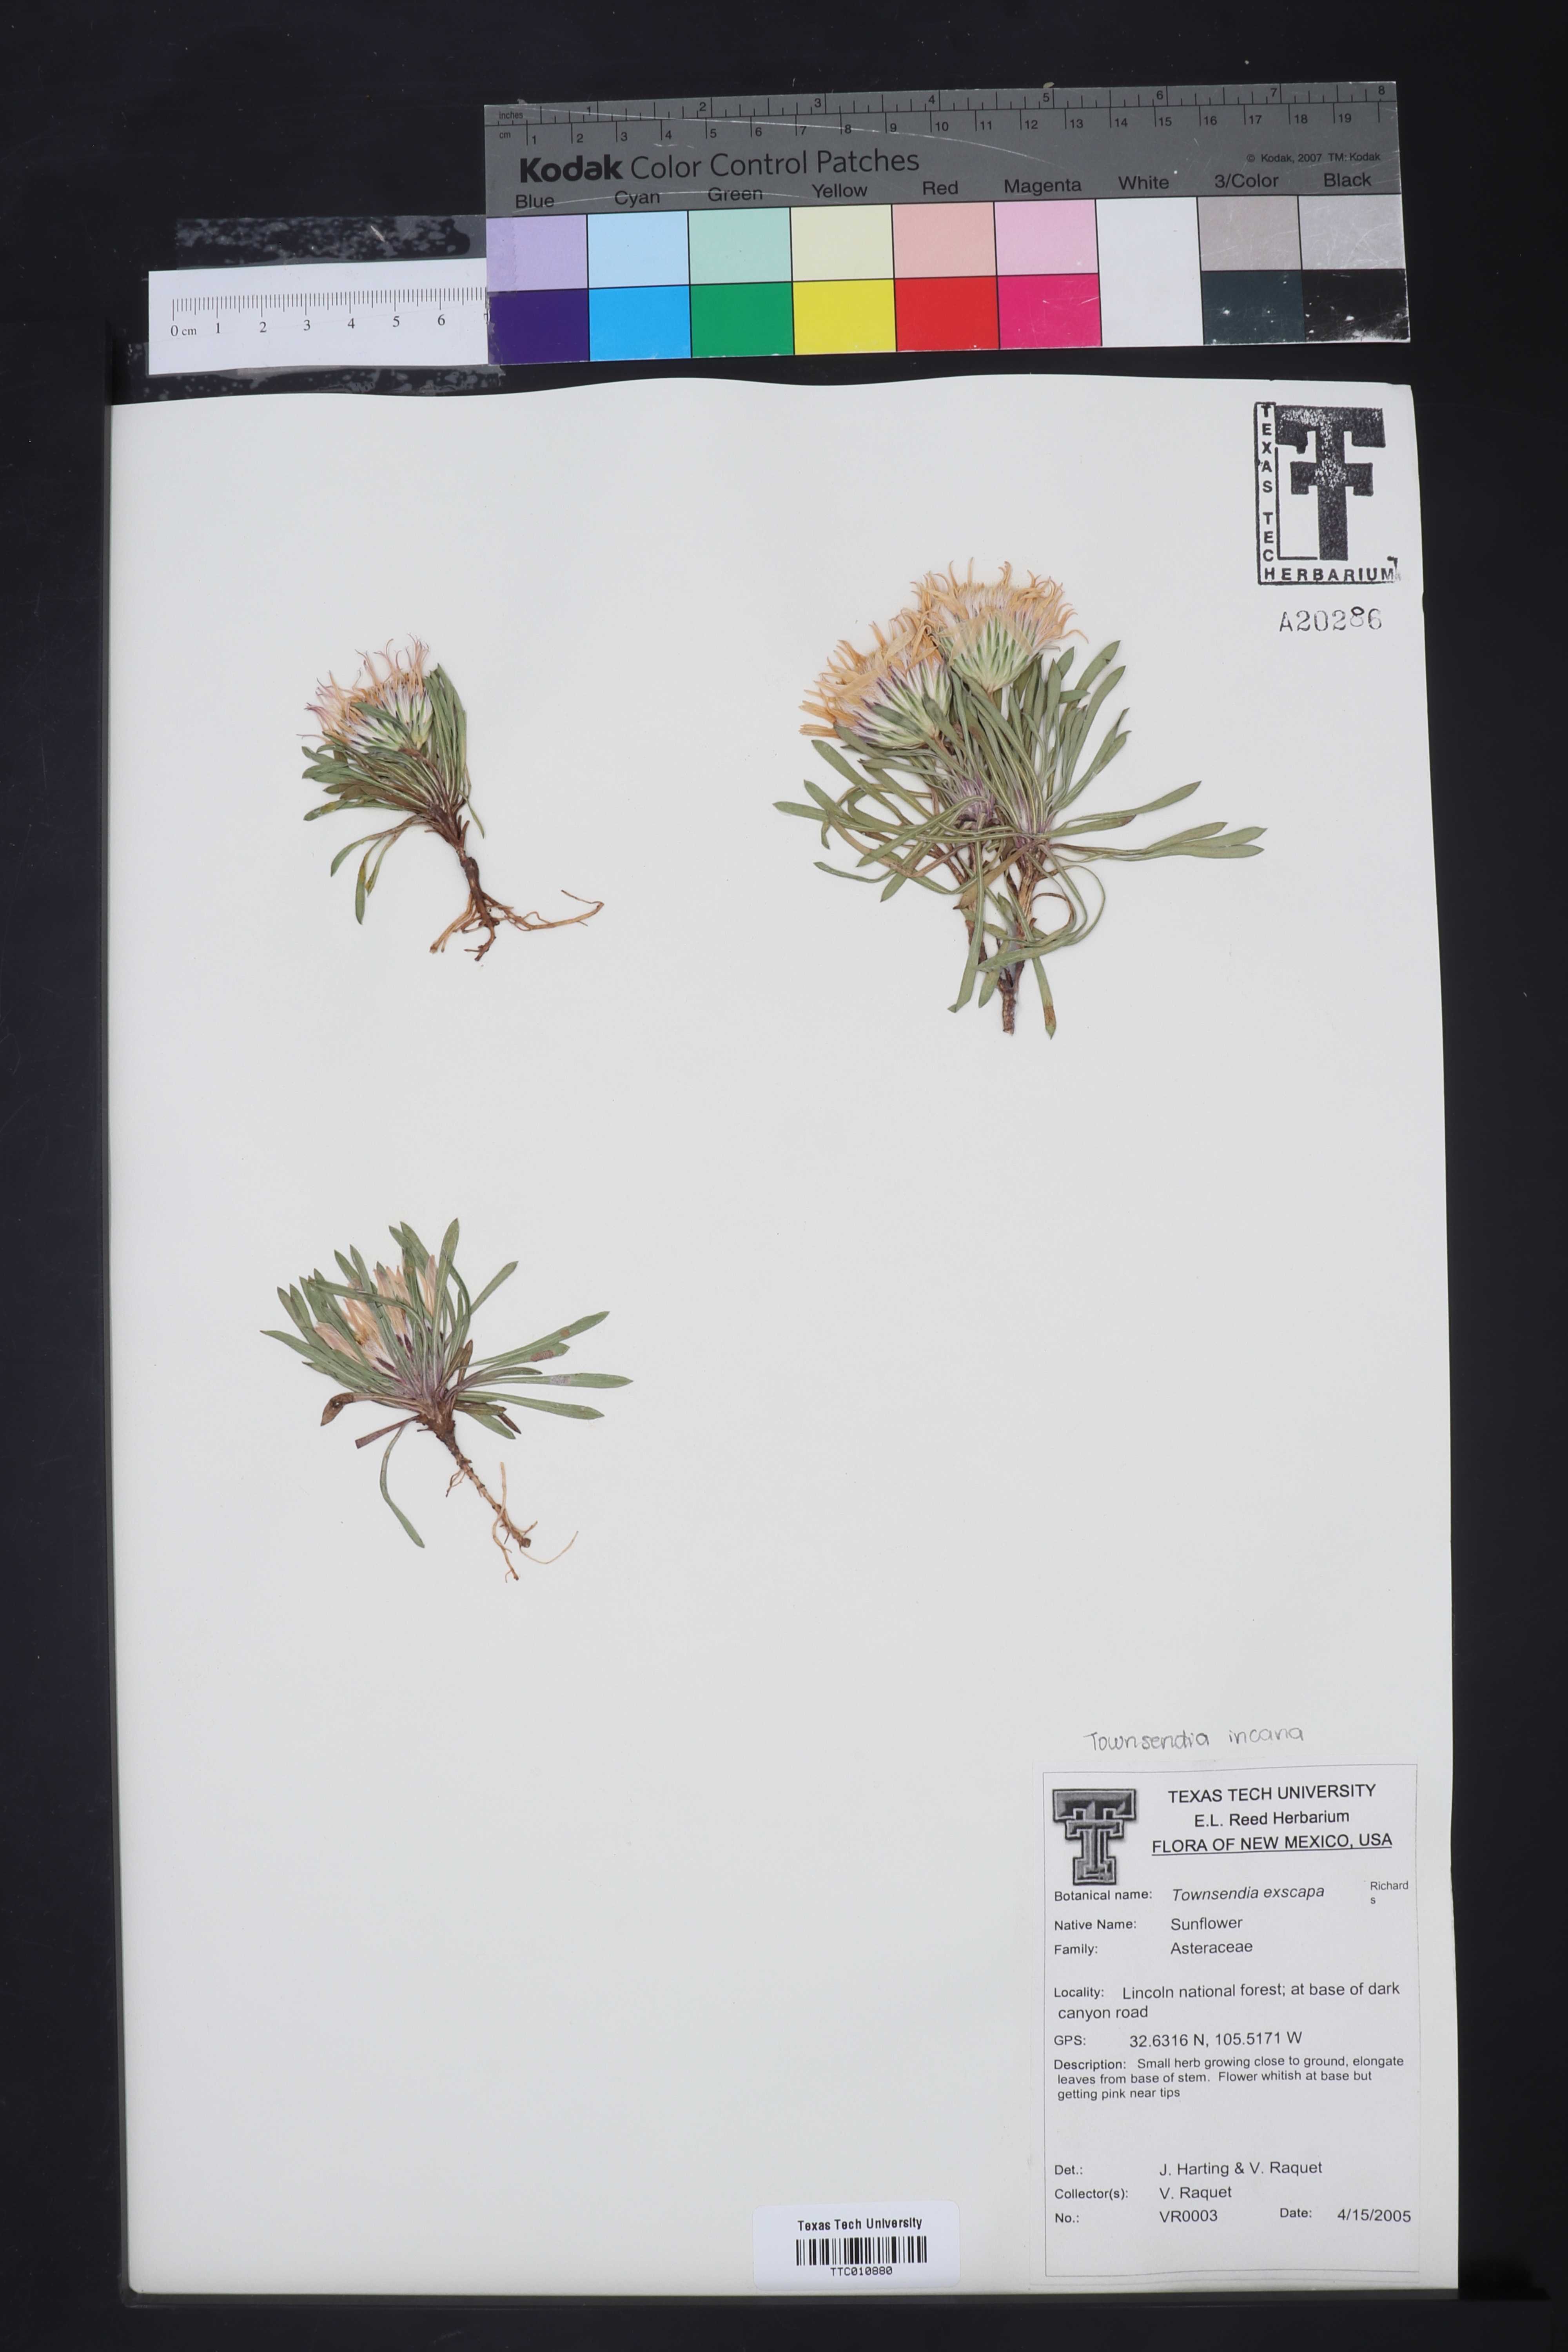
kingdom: Plantae
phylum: Tracheophyta
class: Magnoliopsida
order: Asterales
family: Asteraceae
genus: Townsendia
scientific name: Townsendia exscapa
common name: Dwarf townsendia
